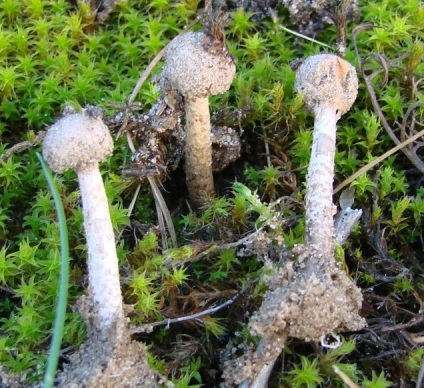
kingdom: Fungi
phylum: Basidiomycota
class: Agaricomycetes
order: Agaricales
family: Agaricaceae
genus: Tulostoma
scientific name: Tulostoma brumale
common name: vinter-stilkbovist
